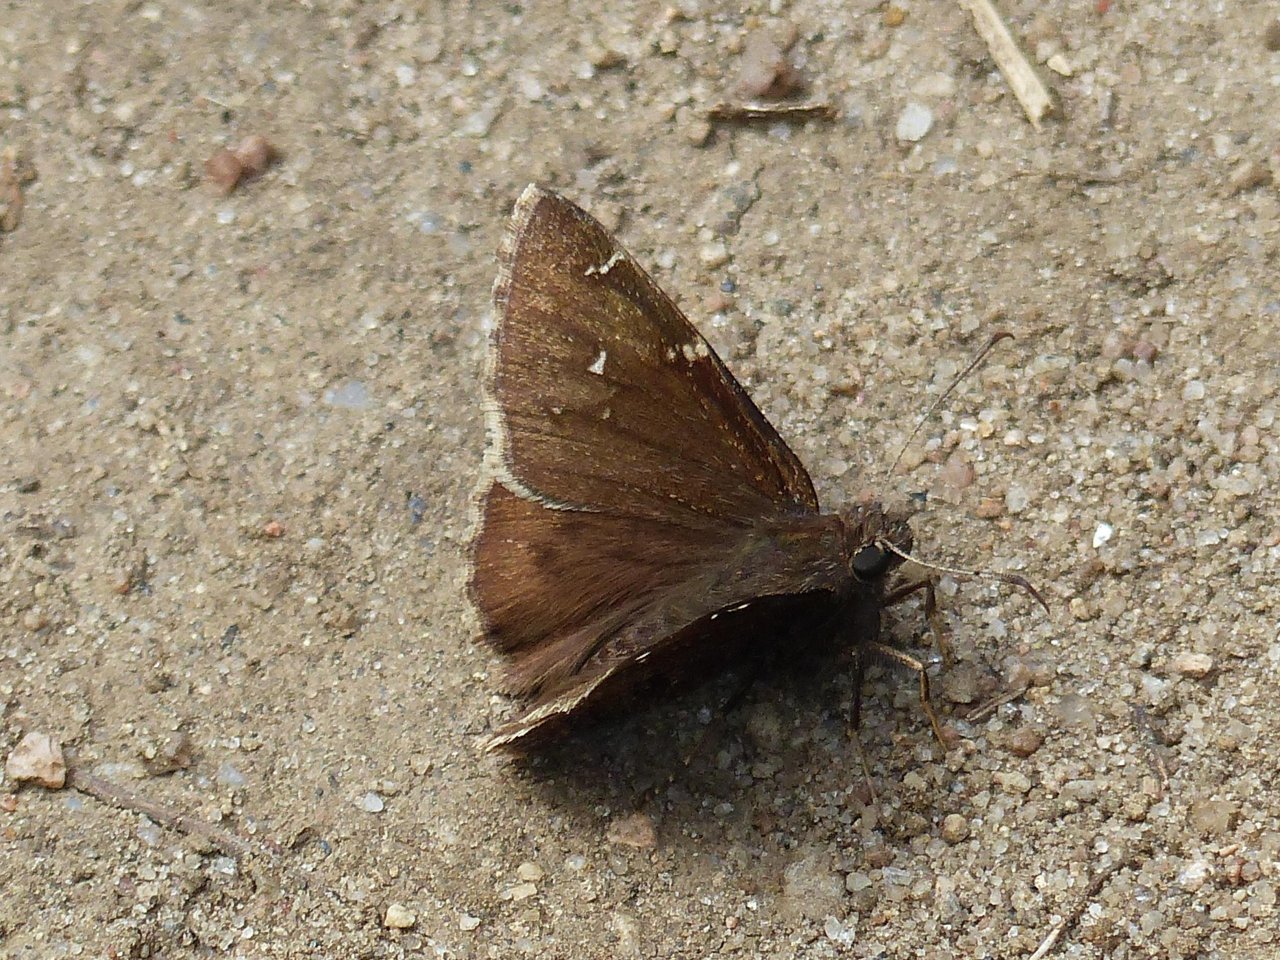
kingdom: Animalia
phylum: Arthropoda
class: Insecta
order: Lepidoptera
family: Hesperiidae
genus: Autochton
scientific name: Autochton
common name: Northern Cloudywing
